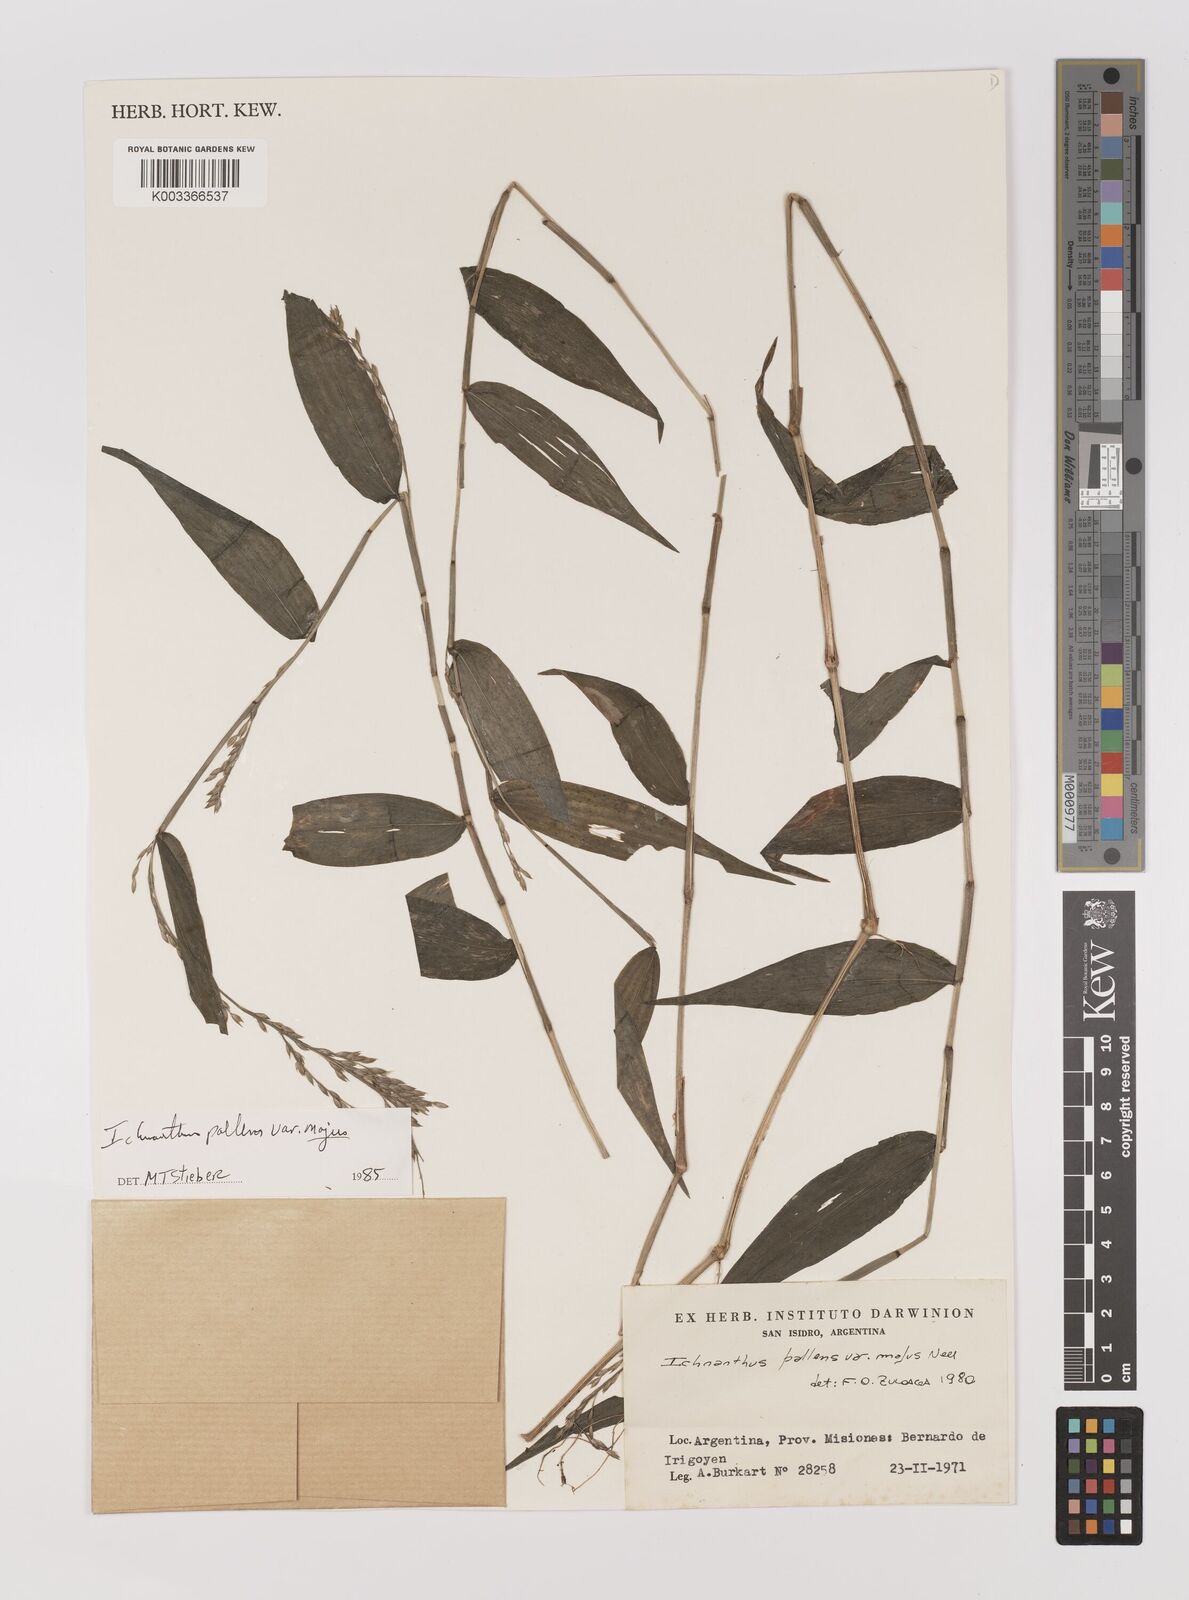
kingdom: Plantae
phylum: Tracheophyta
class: Liliopsida
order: Poales
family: Poaceae
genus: Ichnanthus
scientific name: Ichnanthus pallens
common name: Water grass
